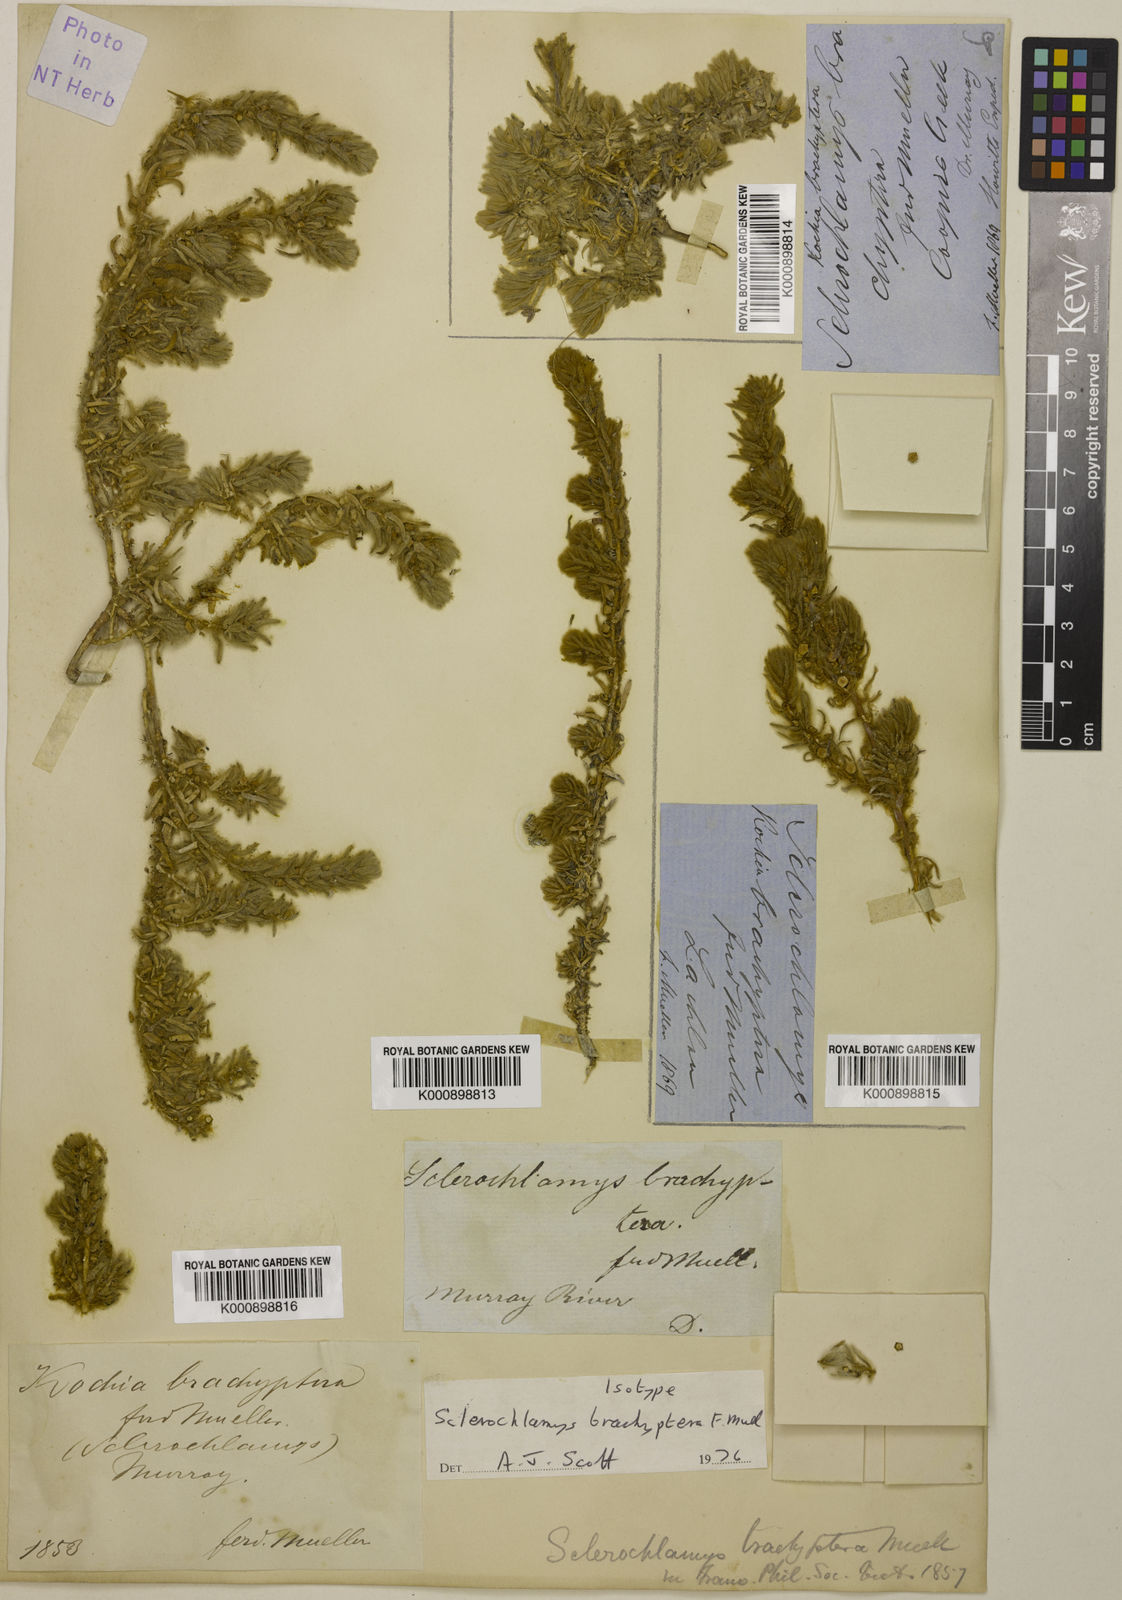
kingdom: Plantae
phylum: Tracheophyta
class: Magnoliopsida
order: Caryophyllales
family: Amaranthaceae
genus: Sclerolaena
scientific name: Sclerolaena brachyptera
